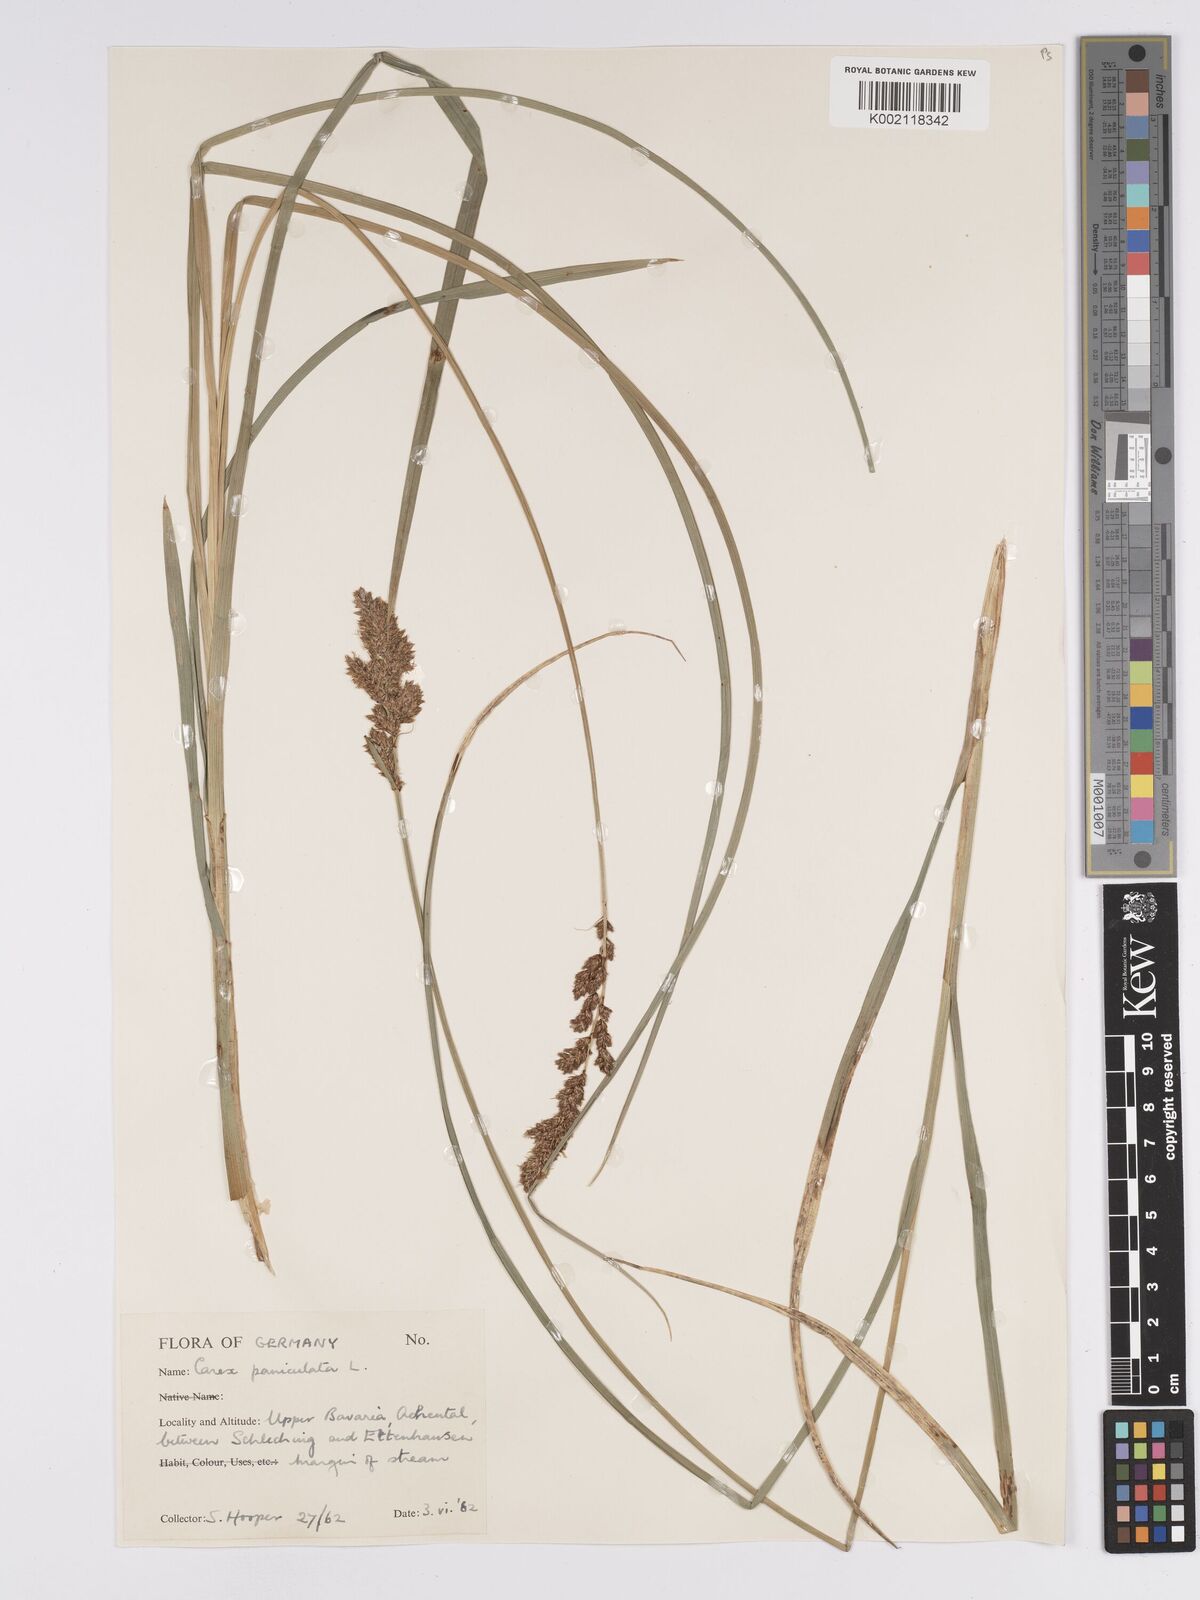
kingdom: Plantae
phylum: Tracheophyta
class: Liliopsida
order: Poales
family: Cyperaceae
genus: Carex
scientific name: Carex paniculata
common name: Greater tussock-sedge
